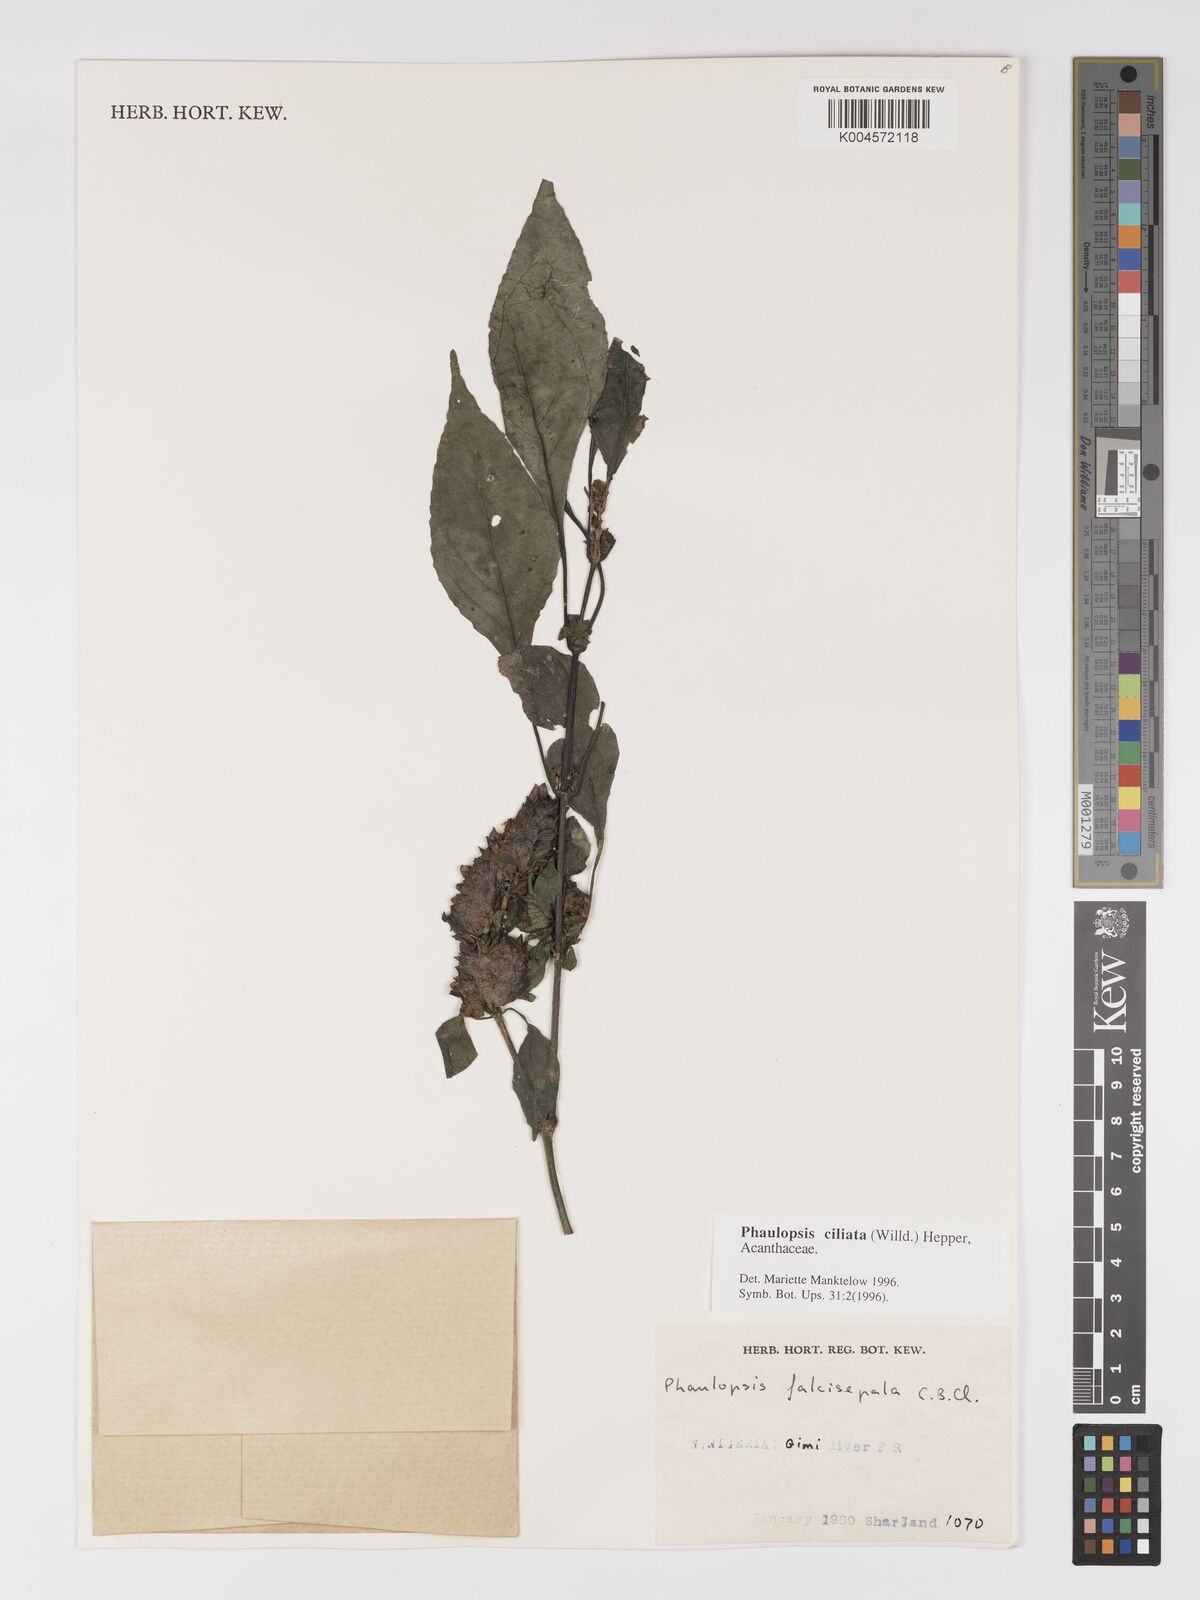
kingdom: Plantae
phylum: Tracheophyta
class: Magnoliopsida
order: Lamiales
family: Acanthaceae
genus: Phaulopsis
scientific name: Phaulopsis ciliata
